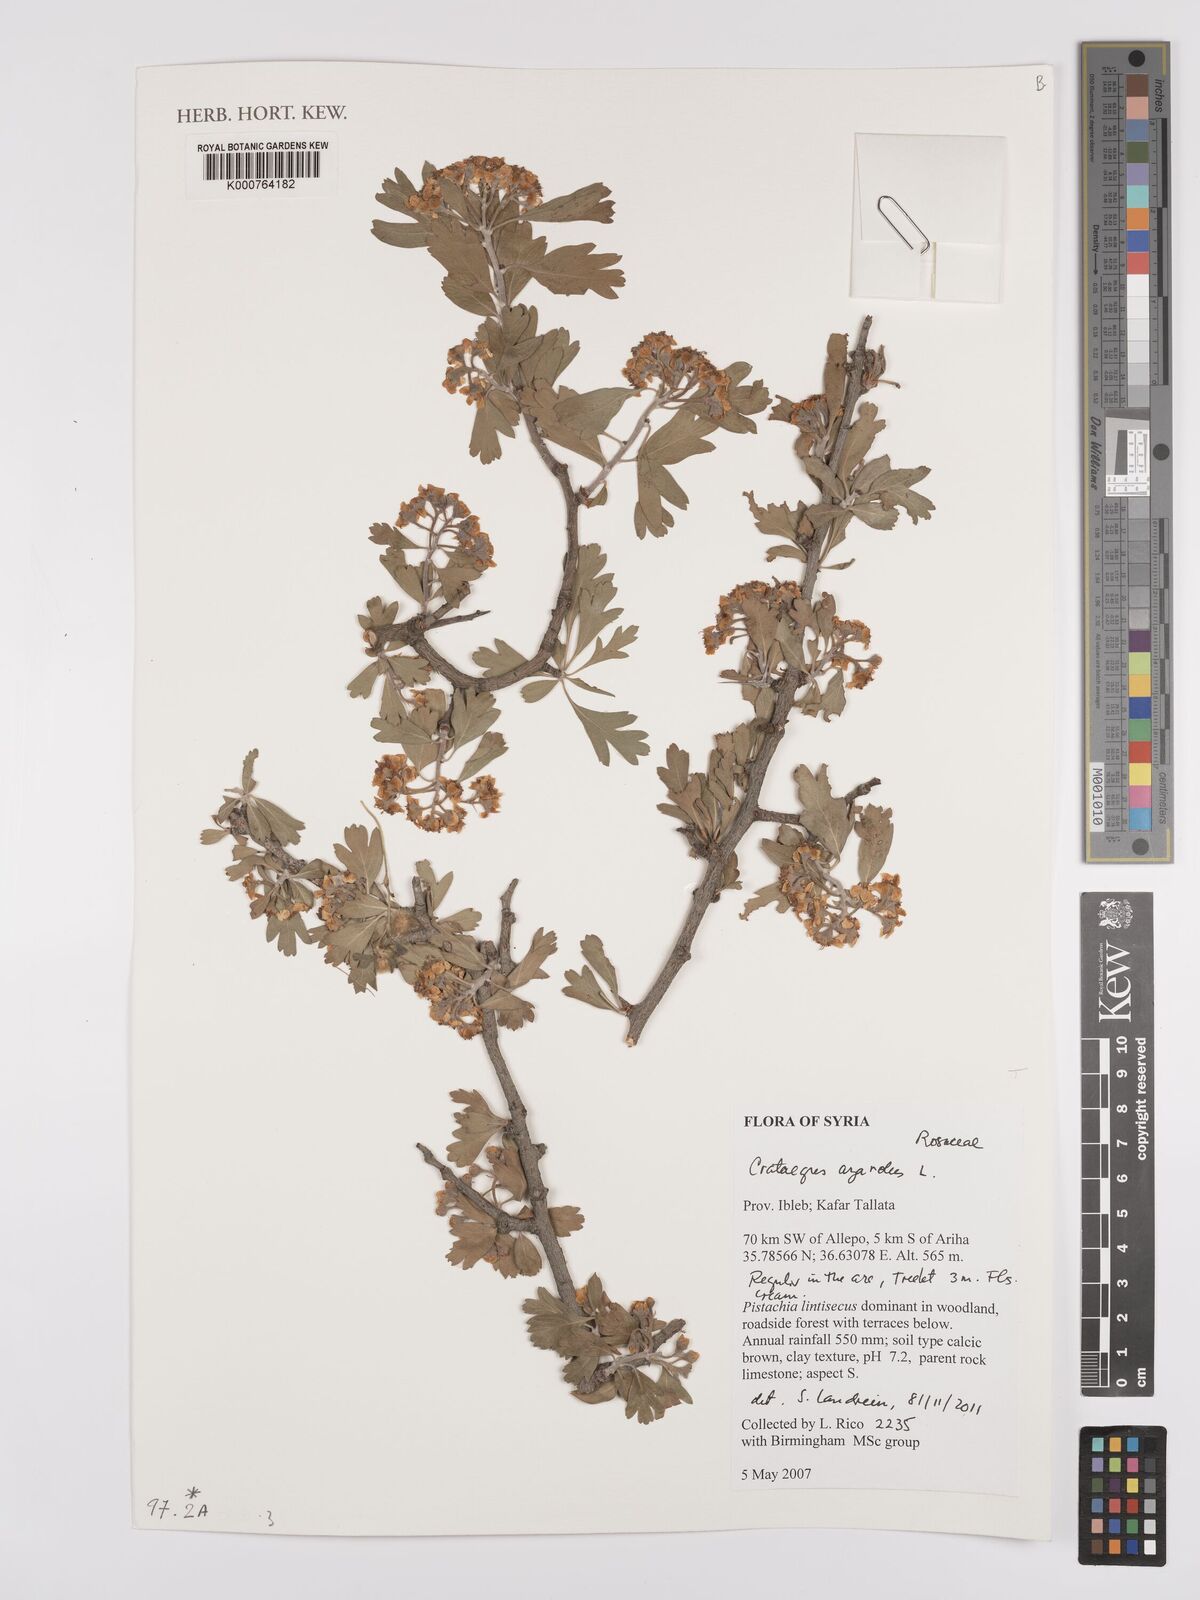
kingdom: Plantae
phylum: Tracheophyta
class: Magnoliopsida
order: Rosales
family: Rosaceae
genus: Crataegus
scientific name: Crataegus azarolus
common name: Azarole
